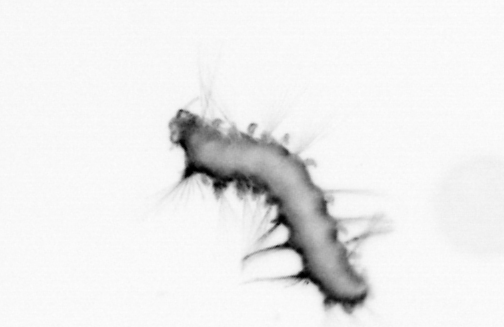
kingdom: Animalia
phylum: Annelida
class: Polychaeta
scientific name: Polychaeta
